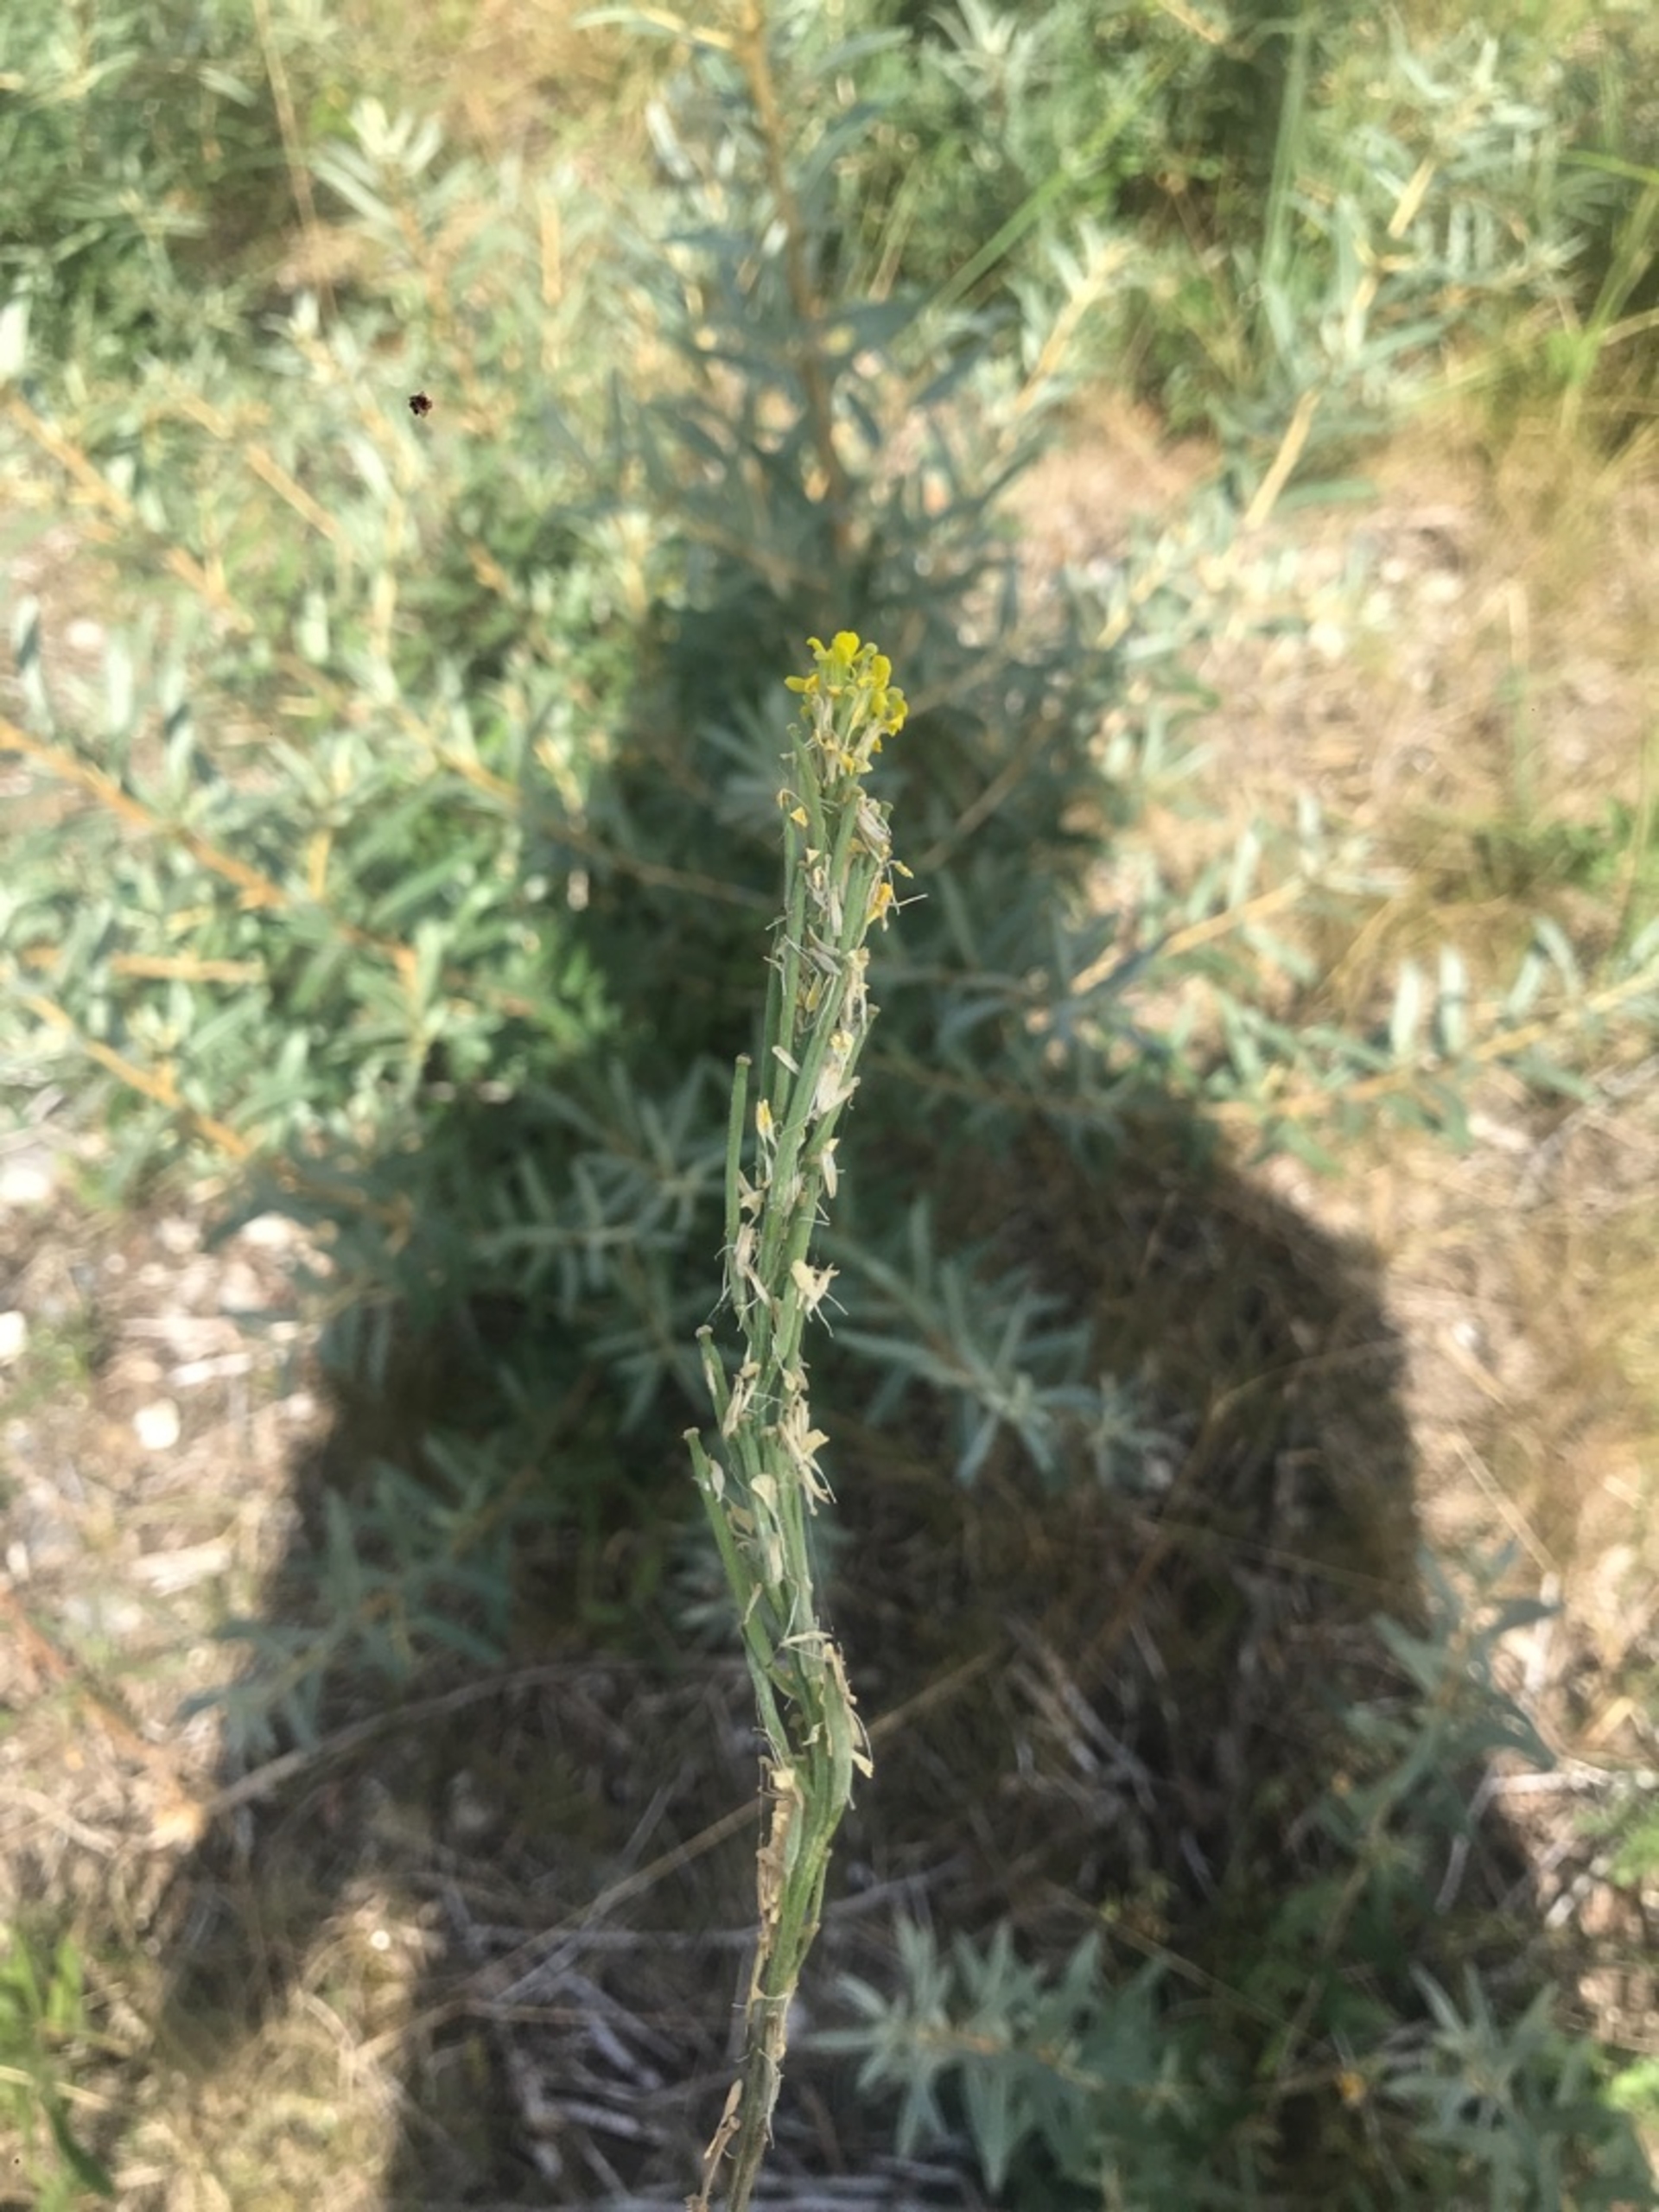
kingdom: Plantae
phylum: Tracheophyta
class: Magnoliopsida
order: Brassicales
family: Brassicaceae
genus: Erysimum
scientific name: Erysimum marschallianum
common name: Hård hjørneklap
